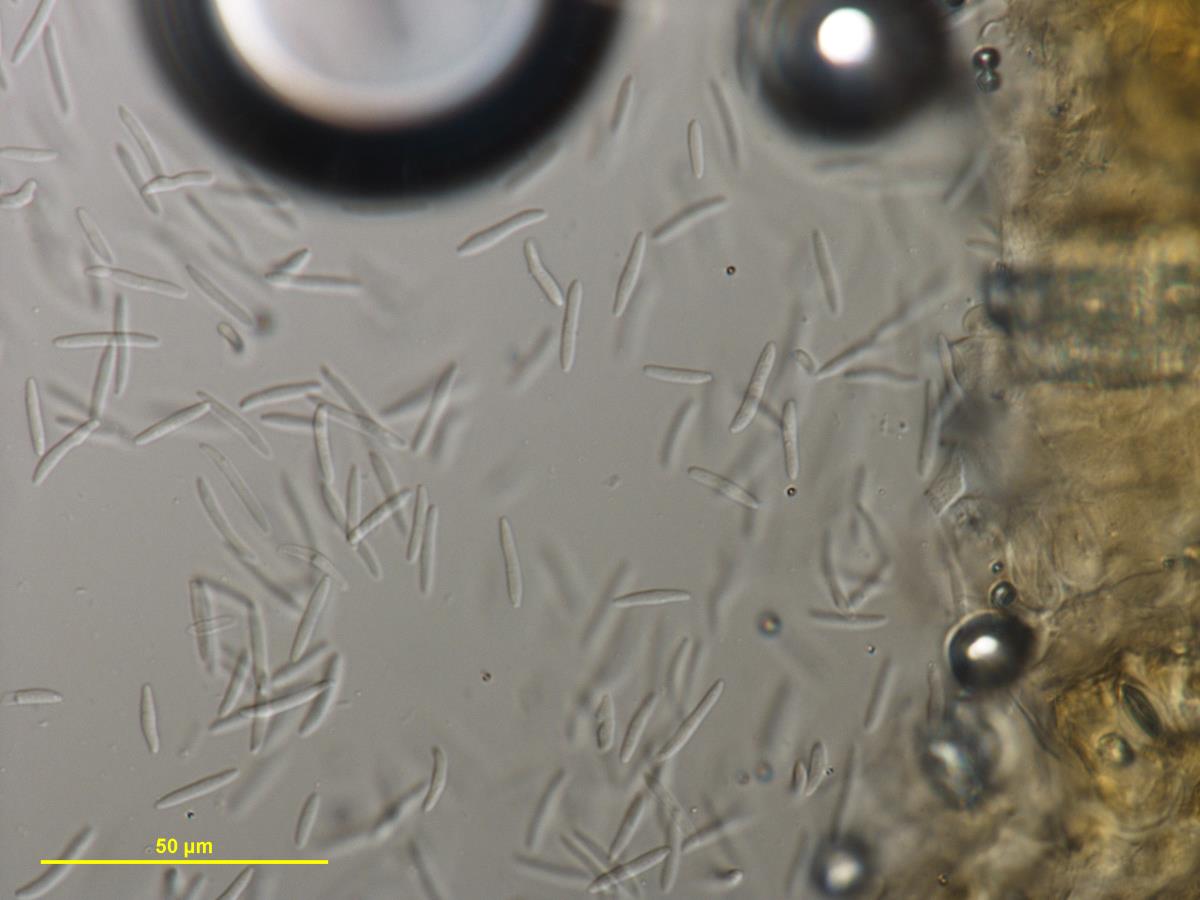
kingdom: Fungi
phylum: Ascomycota
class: Dothideomycetes
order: Mycosphaerellales
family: Mycosphaerellaceae
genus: Septoria
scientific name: Septoria passifloricola
